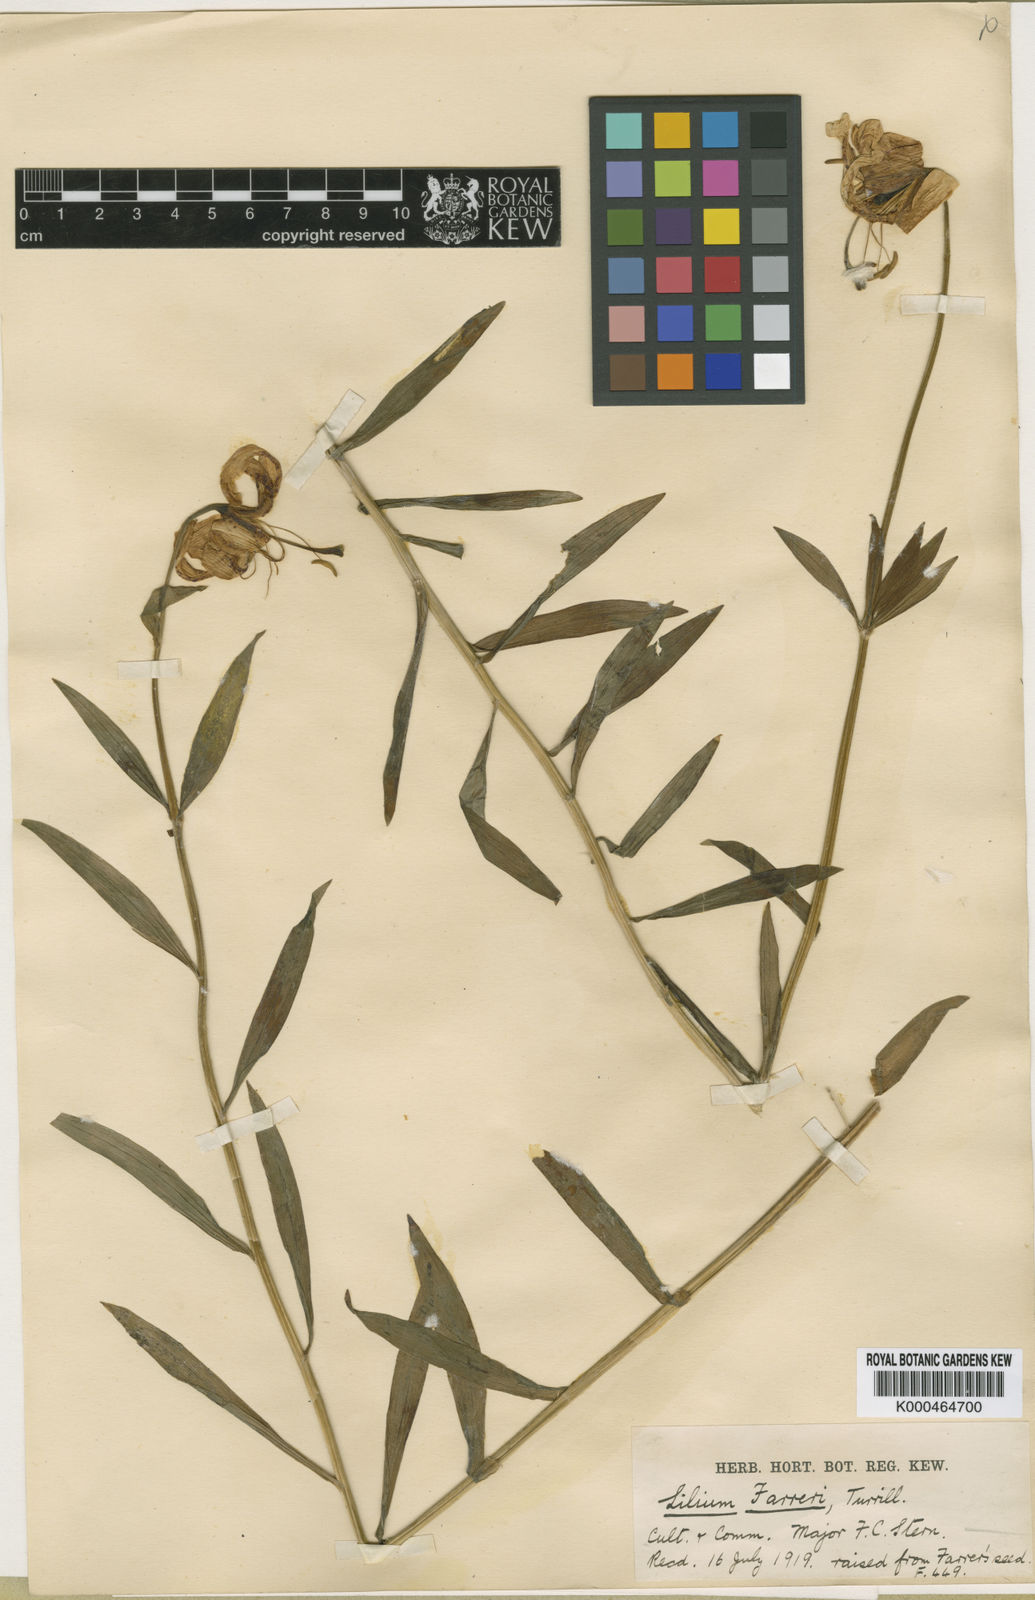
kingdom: Plantae
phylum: Tracheophyta
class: Liliopsida
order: Liliales
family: Liliaceae
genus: Lilium
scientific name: Lilium duchartrei
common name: Duchartre lily
